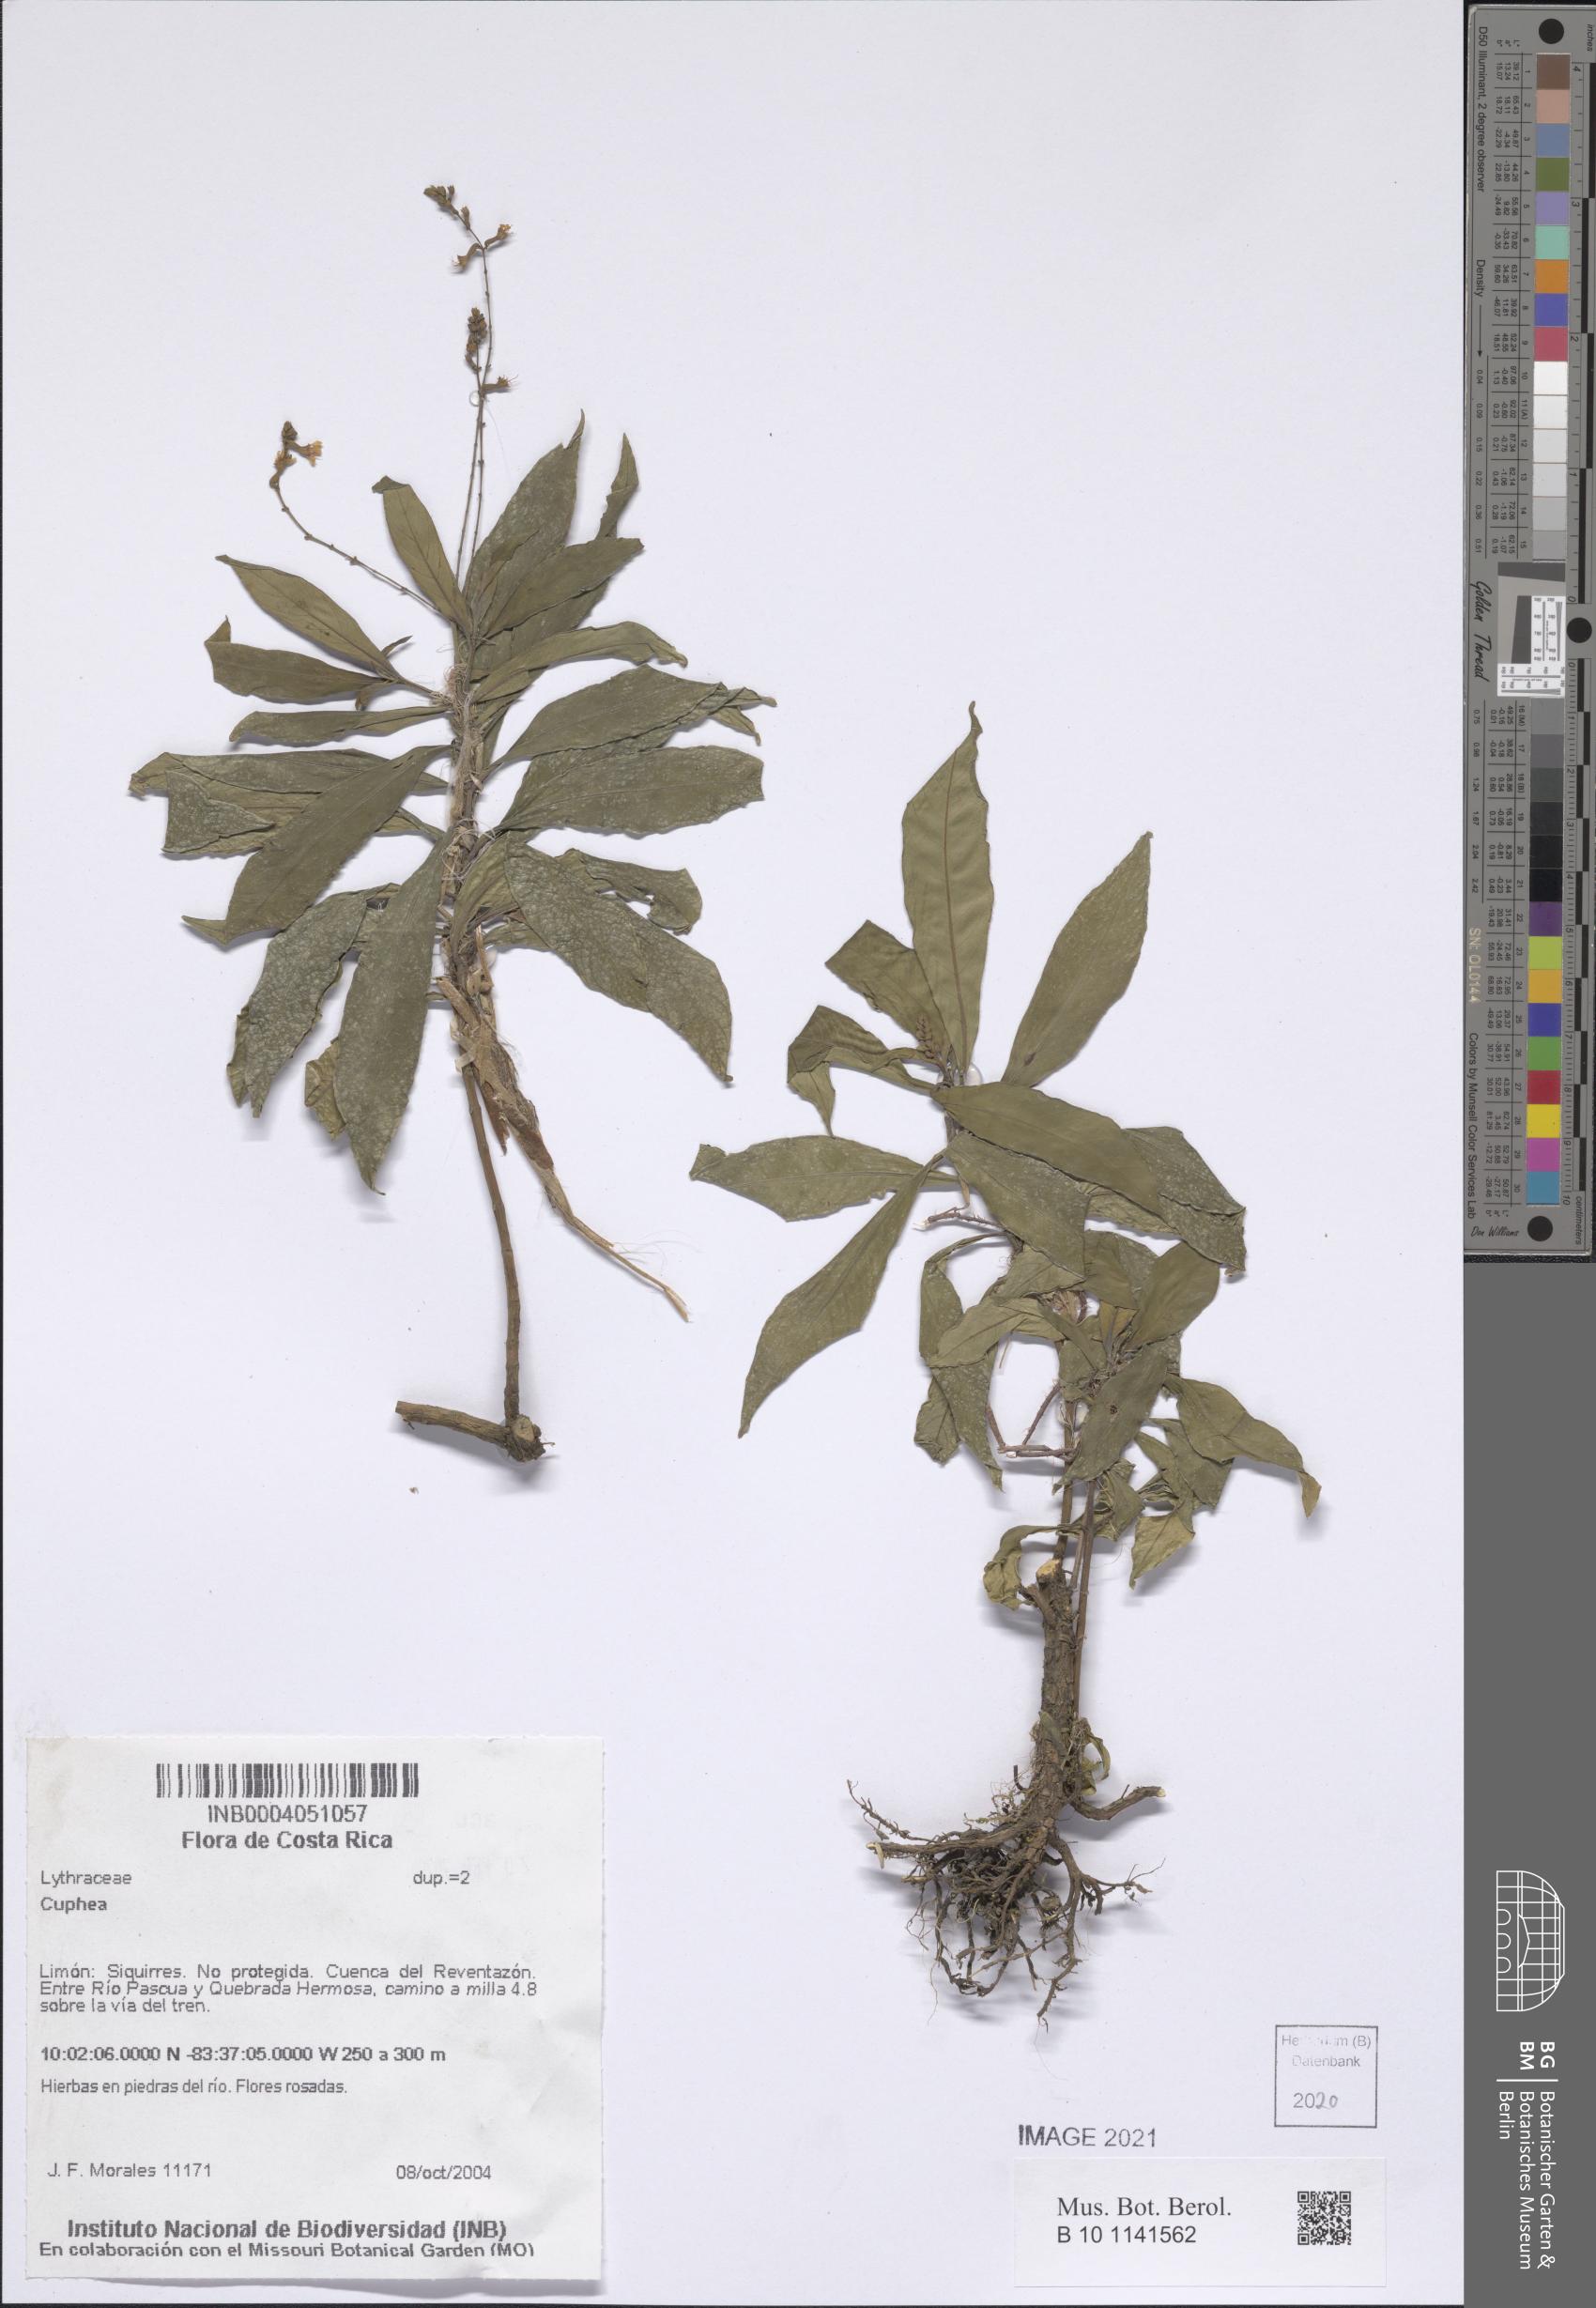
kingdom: Plantae
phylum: Tracheophyta
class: Magnoliopsida
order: Myrtales
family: Lythraceae
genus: Cuphea
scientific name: Cuphea
